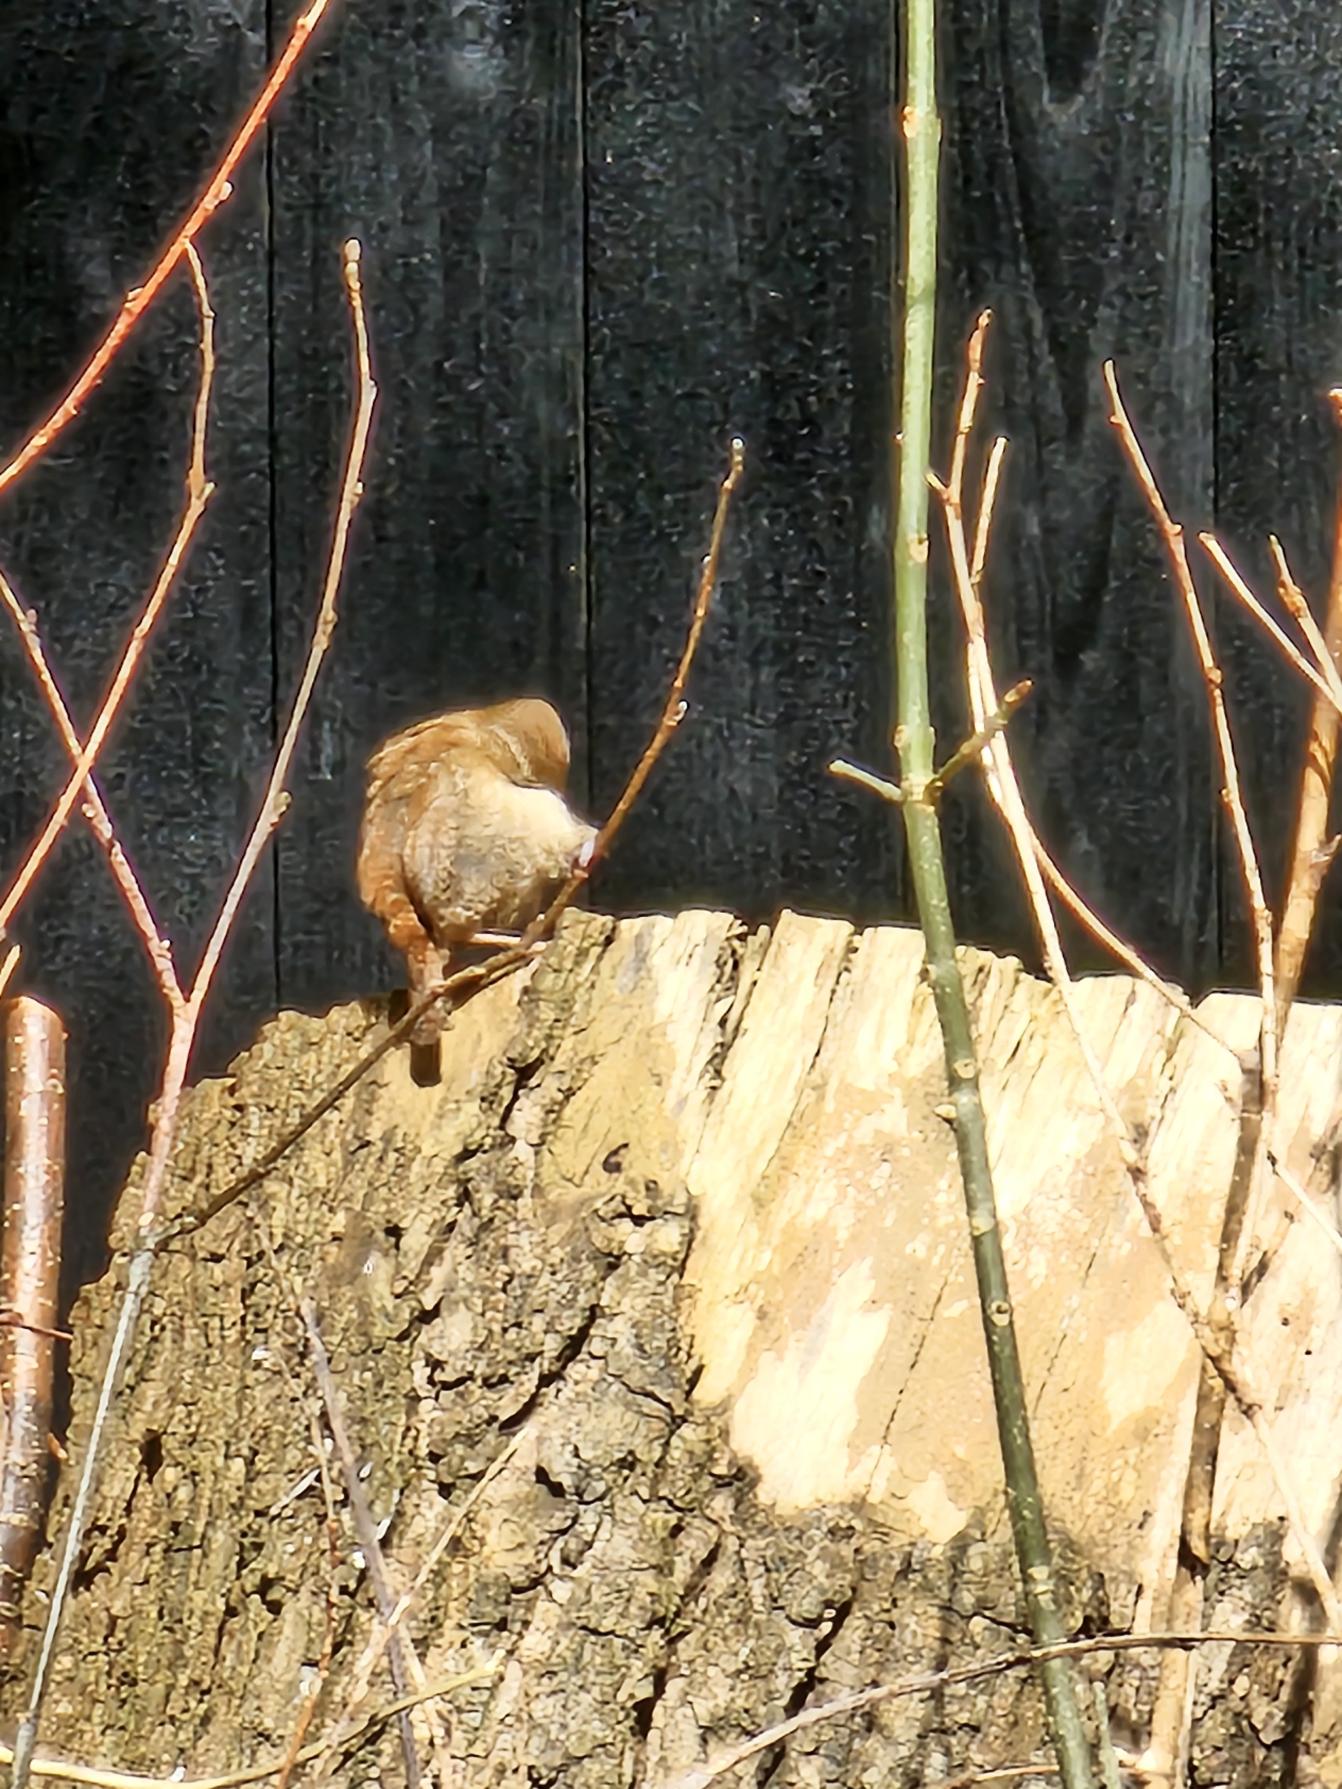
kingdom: Animalia
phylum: Chordata
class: Aves
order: Passeriformes
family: Troglodytidae
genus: Troglodytes
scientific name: Troglodytes troglodytes
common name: Gærdesmutte
